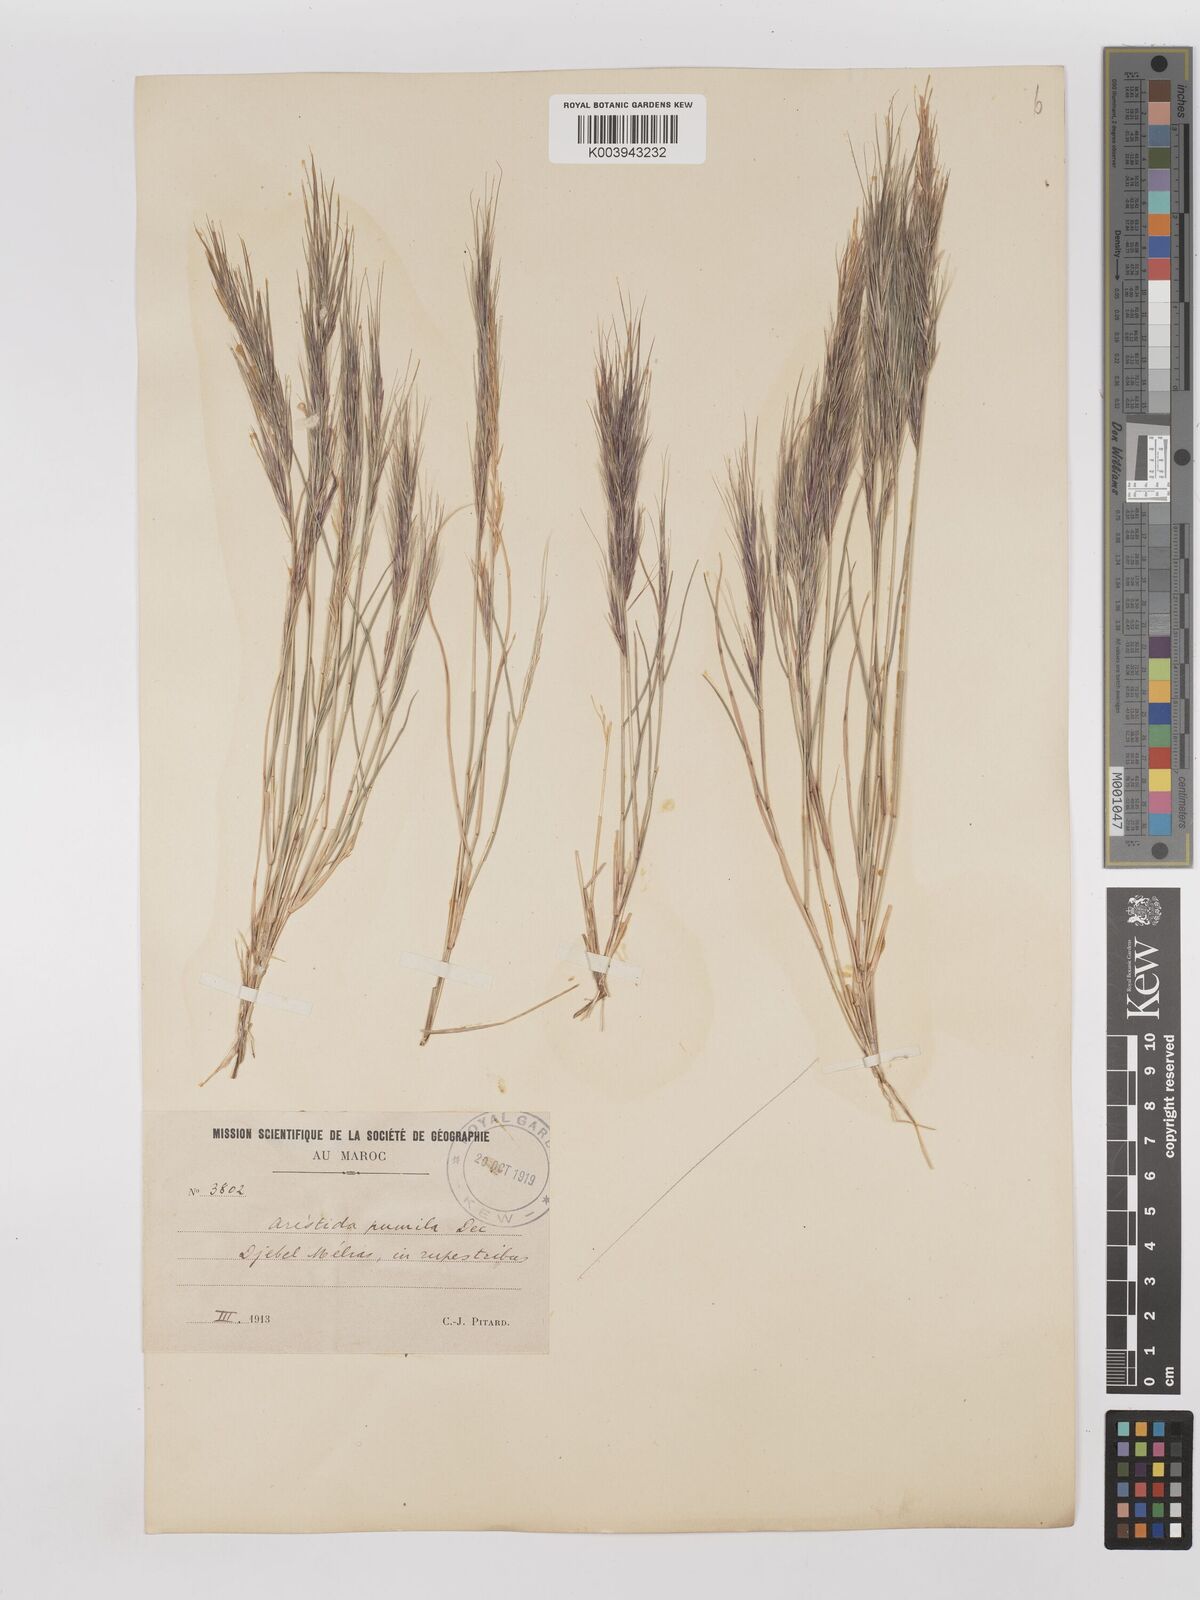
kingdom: Plantae
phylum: Tracheophyta
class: Liliopsida
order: Poales
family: Poaceae
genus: Aristida
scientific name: Aristida adscensionis
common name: Sixweeks threeawn
